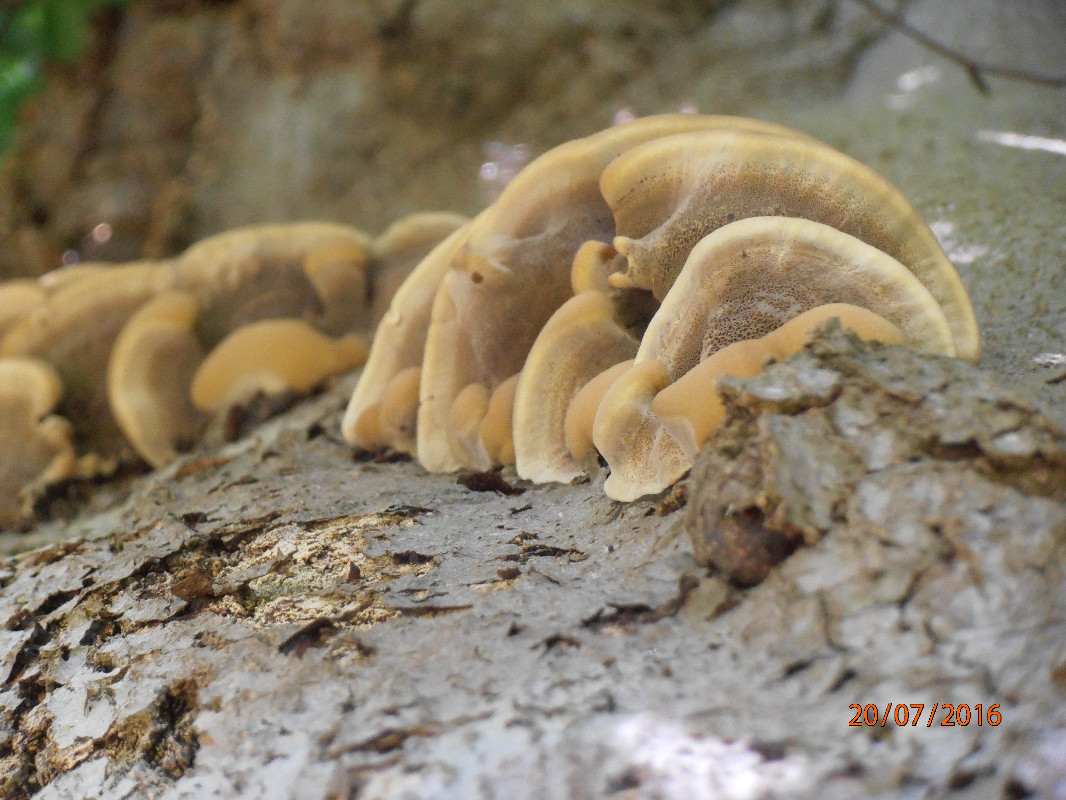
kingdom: Fungi
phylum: Basidiomycota
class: Agaricomycetes
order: Hymenochaetales
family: Hymenochaetaceae
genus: Inonotus
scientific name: Inonotus cuticularis
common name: kroghåret spejlporesvamp
